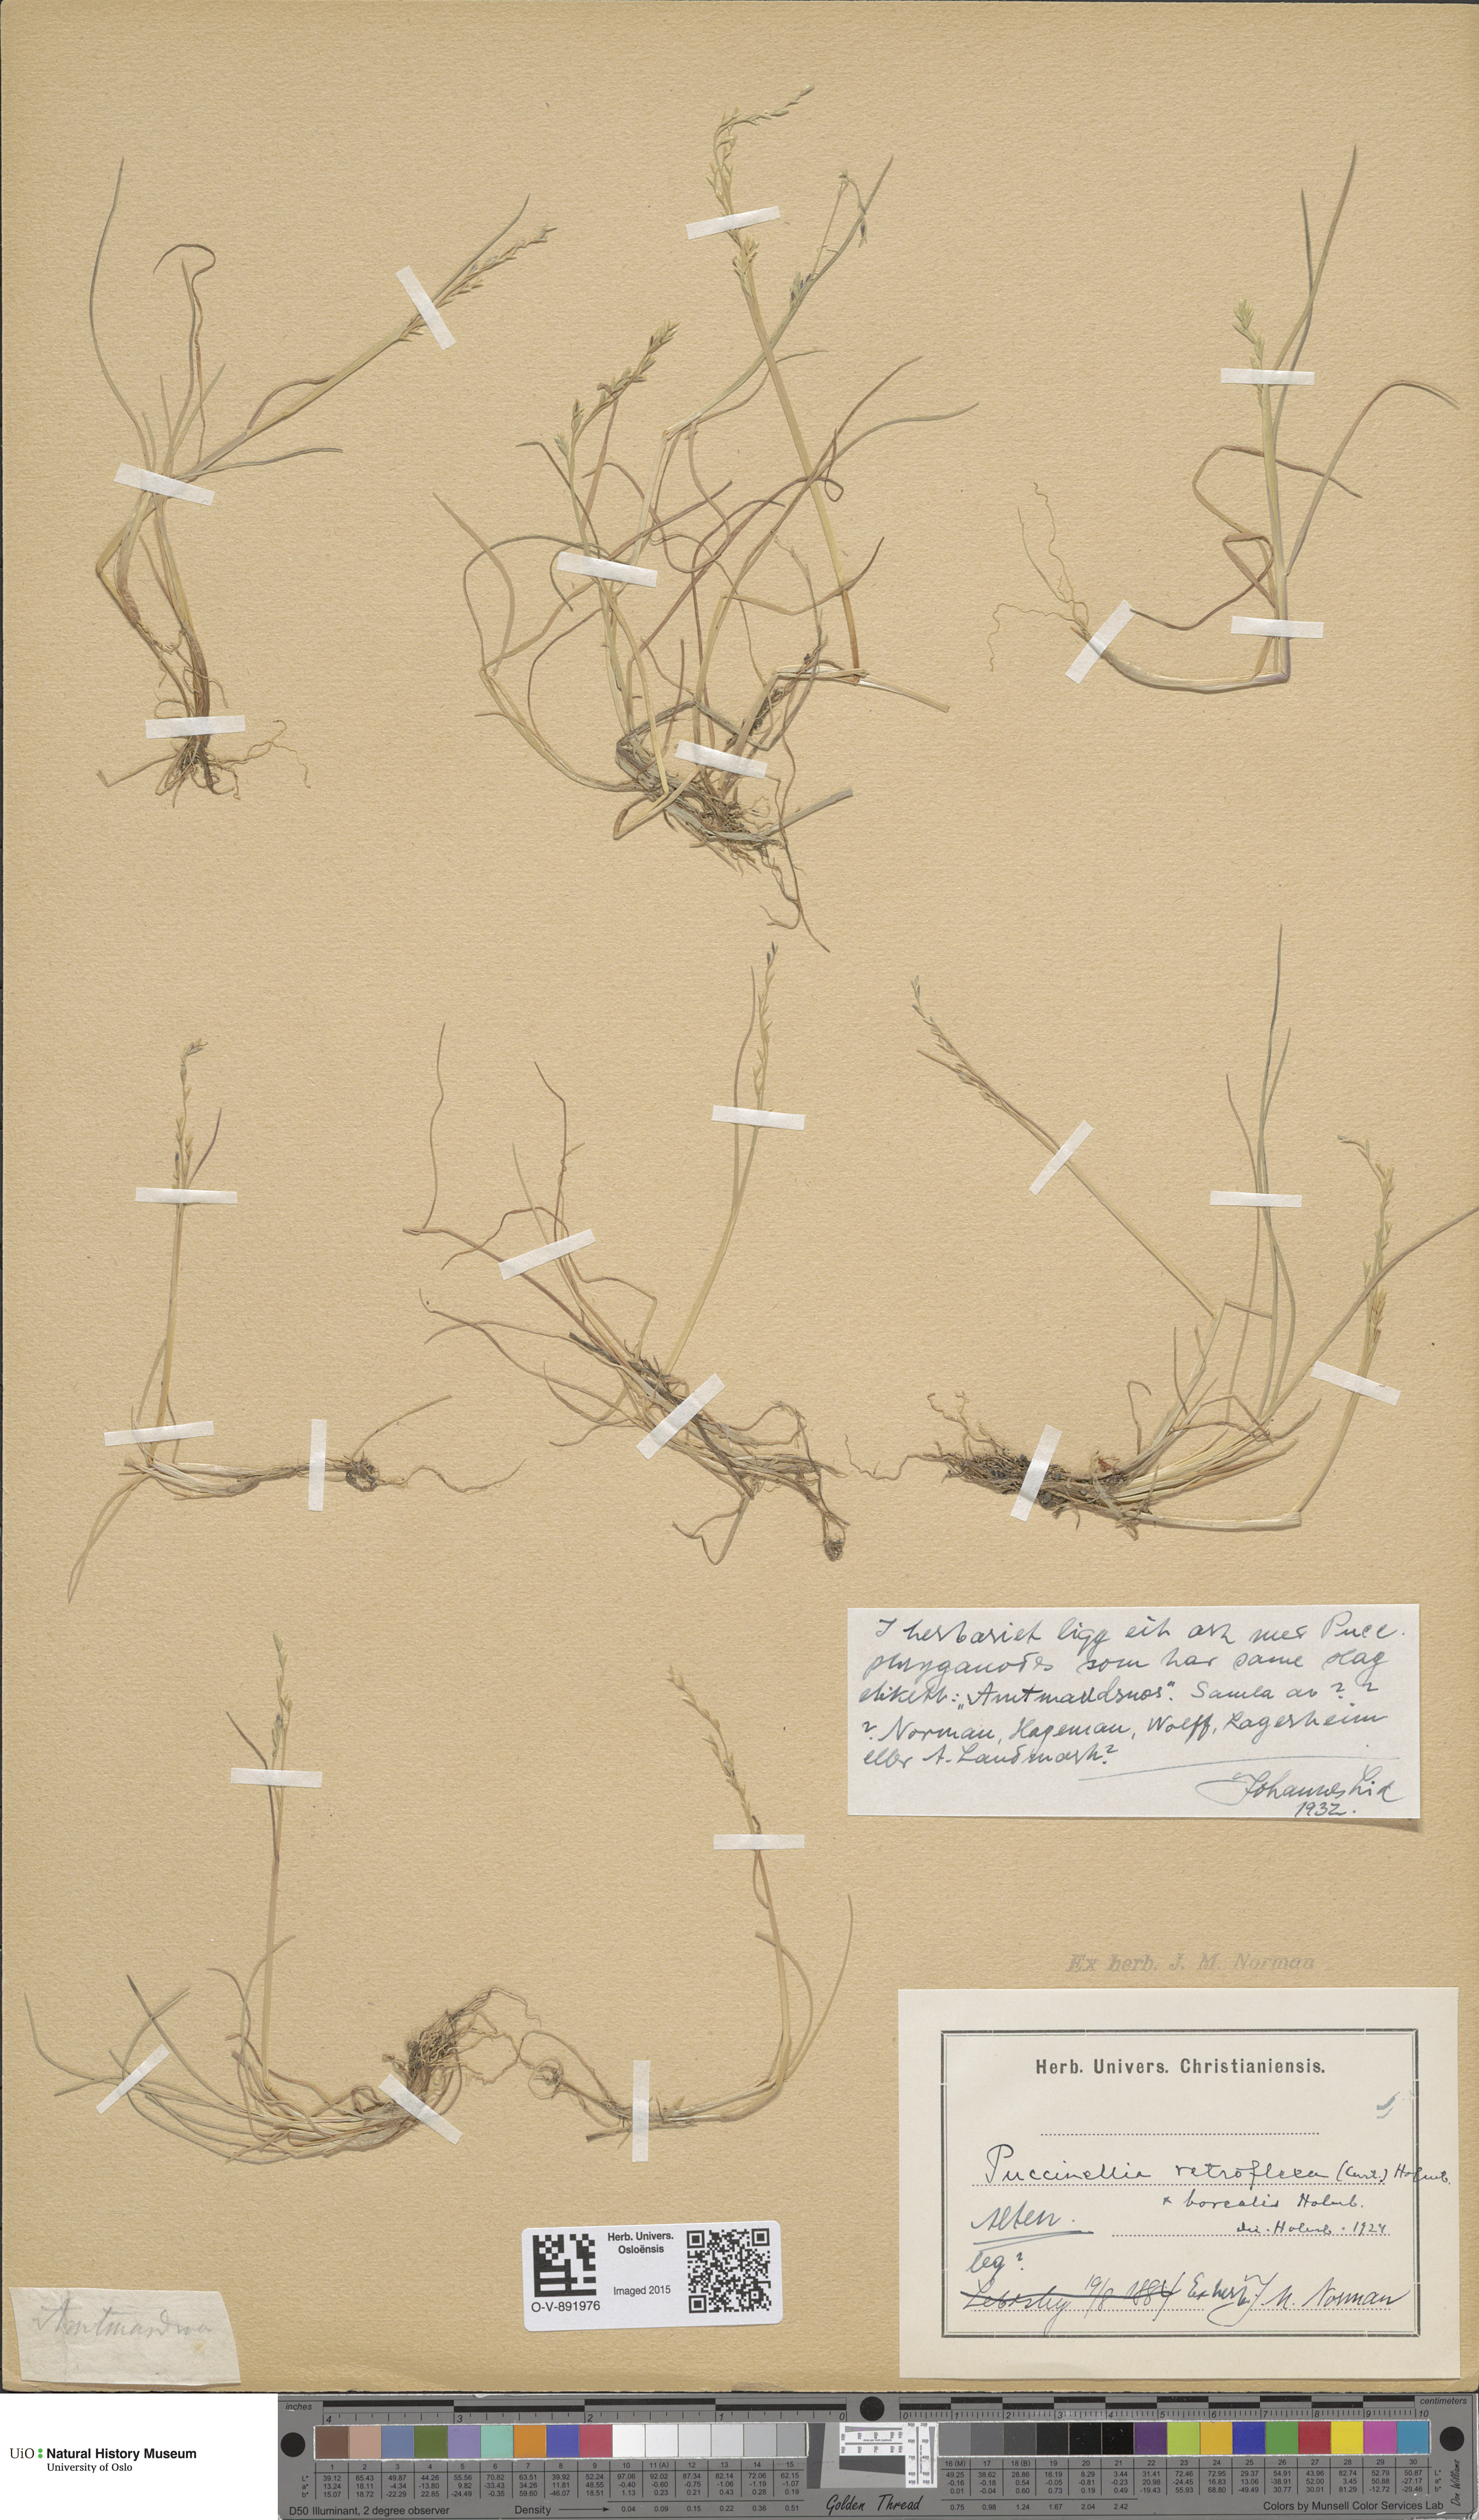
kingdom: Plantae
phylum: Tracheophyta
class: Liliopsida
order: Poales
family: Poaceae
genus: Puccinellia
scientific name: Puccinellia distans
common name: Weeping alkaligrass
